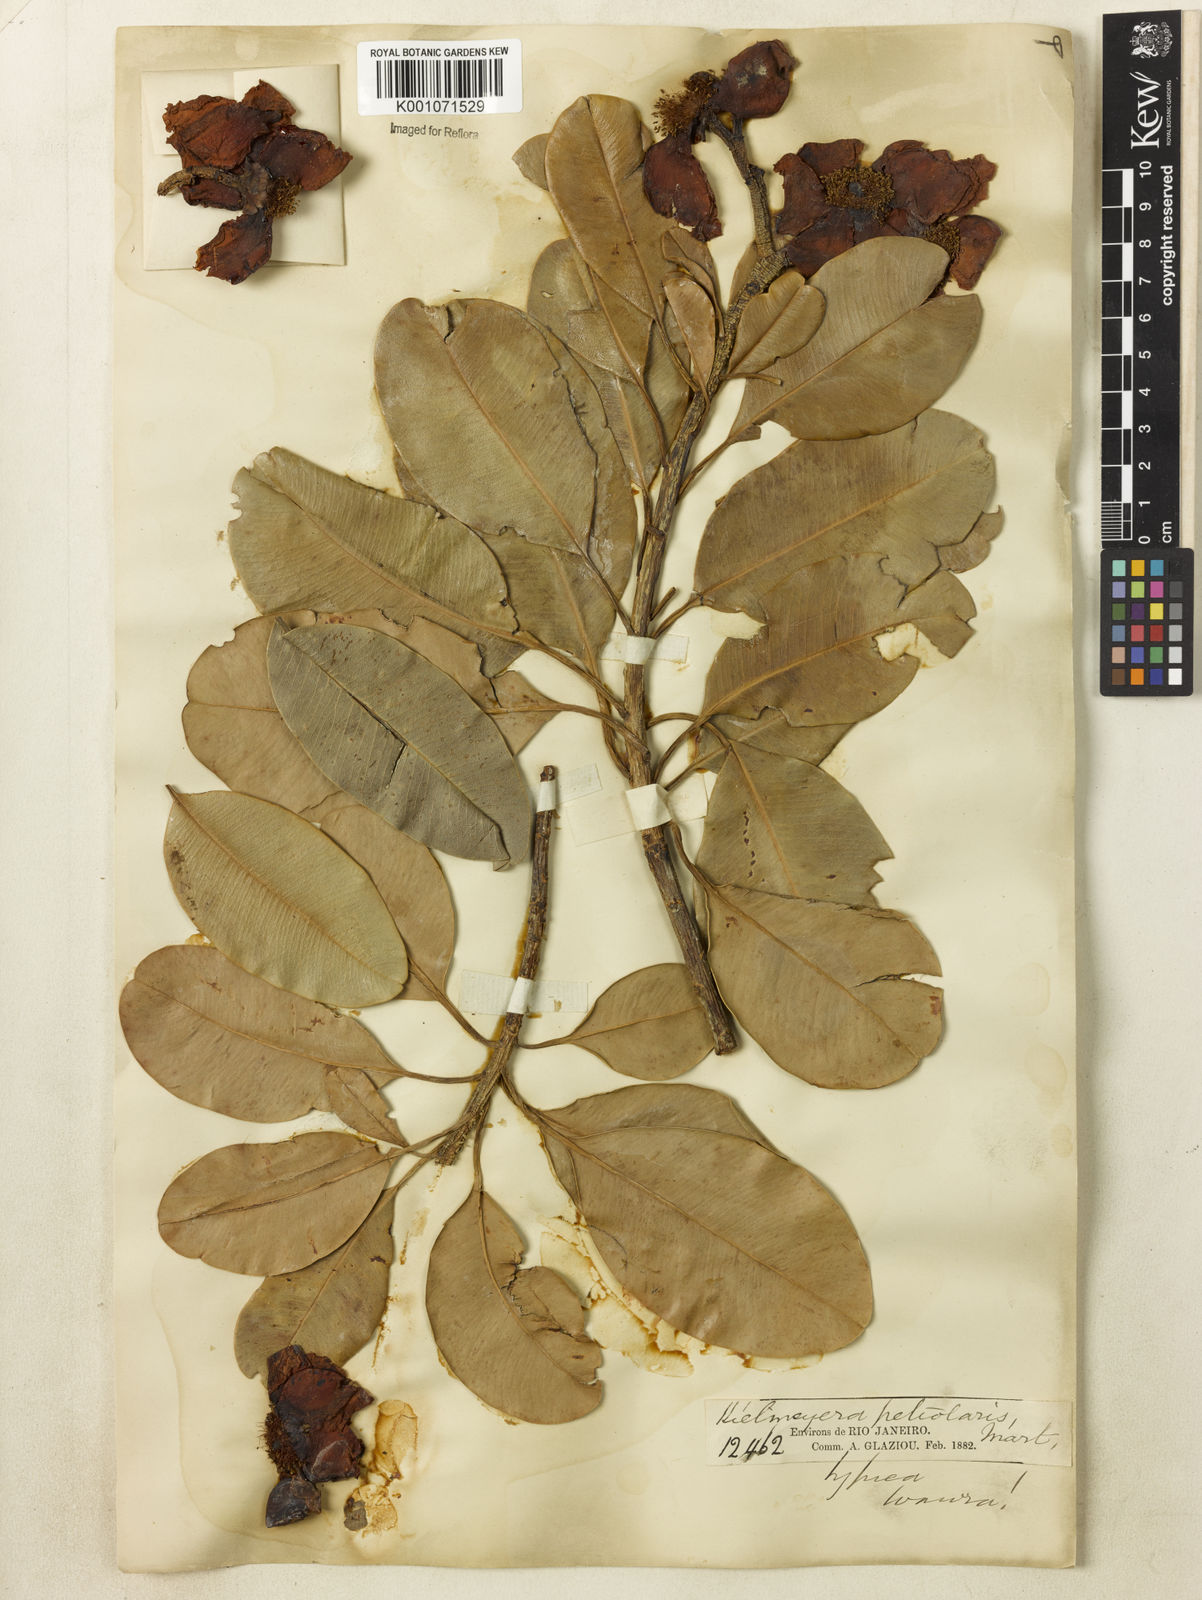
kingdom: Plantae
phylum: Tracheophyta
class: Magnoliopsida
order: Malpighiales
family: Calophyllaceae
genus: Kielmeyera
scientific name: Kielmeyera petiolaris
